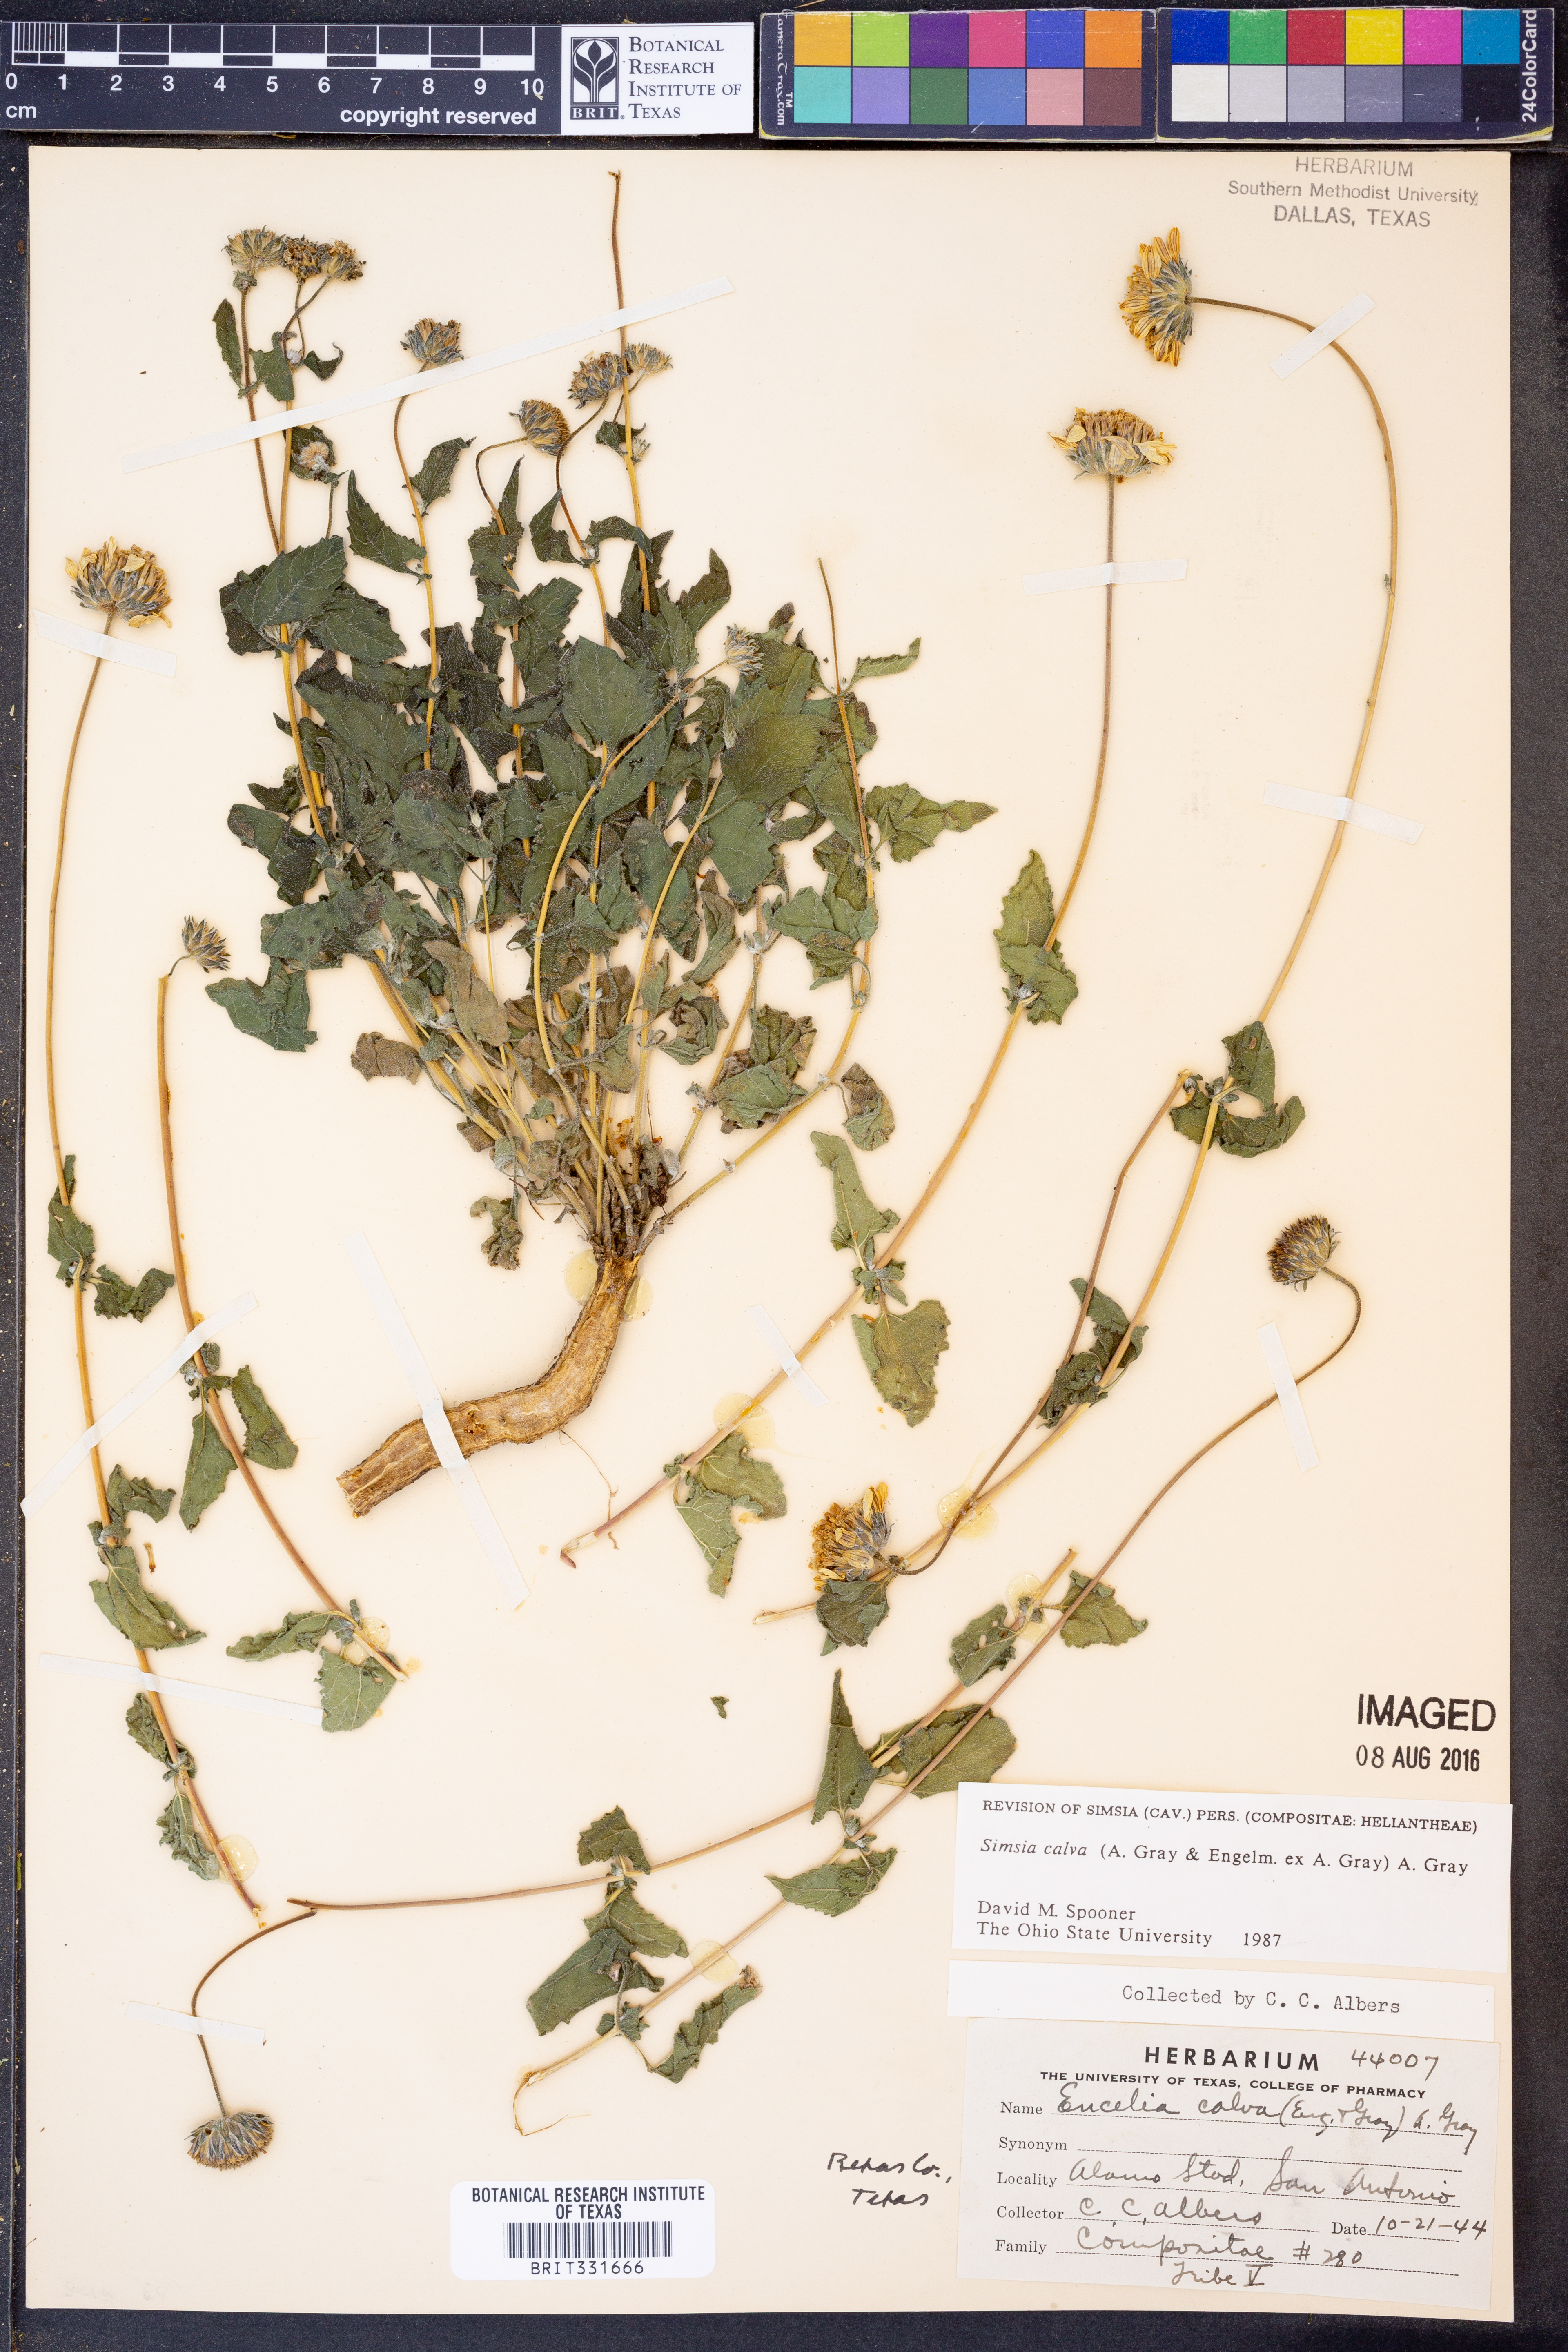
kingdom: Plantae
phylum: Tracheophyta
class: Magnoliopsida
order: Asterales
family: Asteraceae
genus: Simsia
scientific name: Simsia calva
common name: Awnless bush-sunflower
